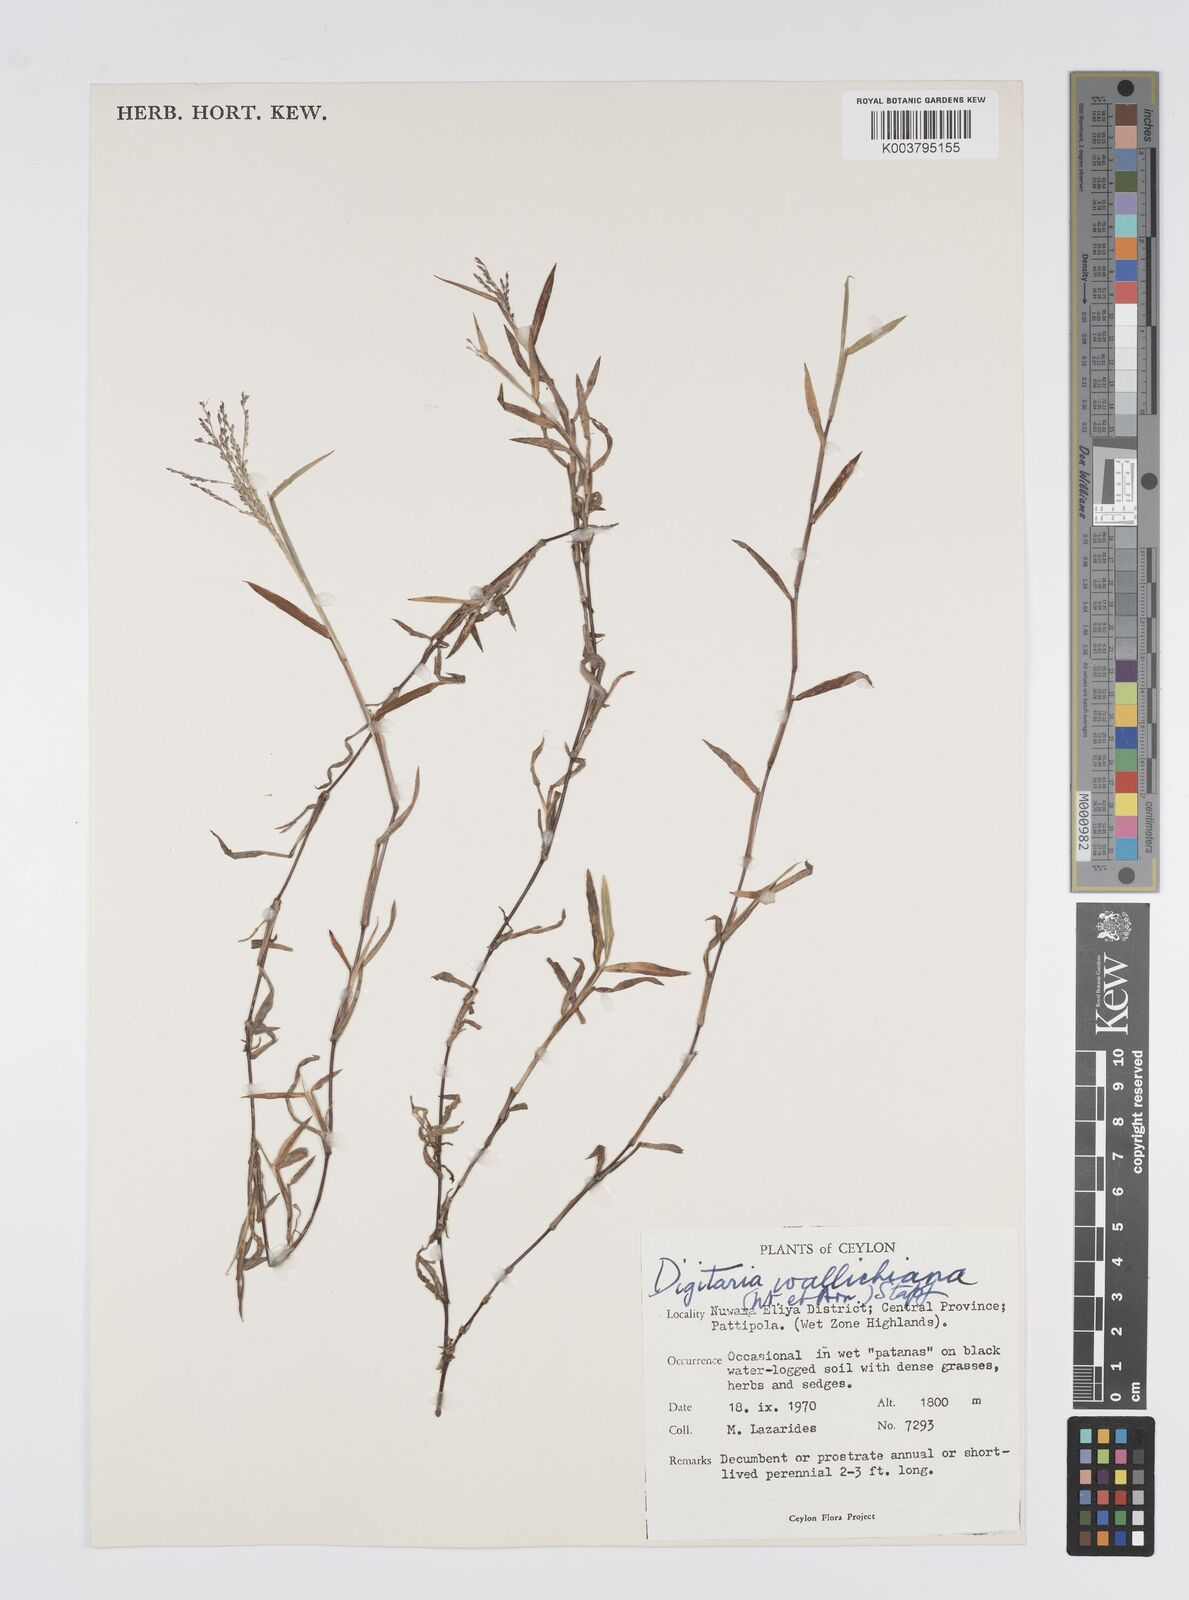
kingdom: Plantae
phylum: Tracheophyta
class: Liliopsida
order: Poales
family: Poaceae
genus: Digitaria
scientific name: Digitaria wallichiana
